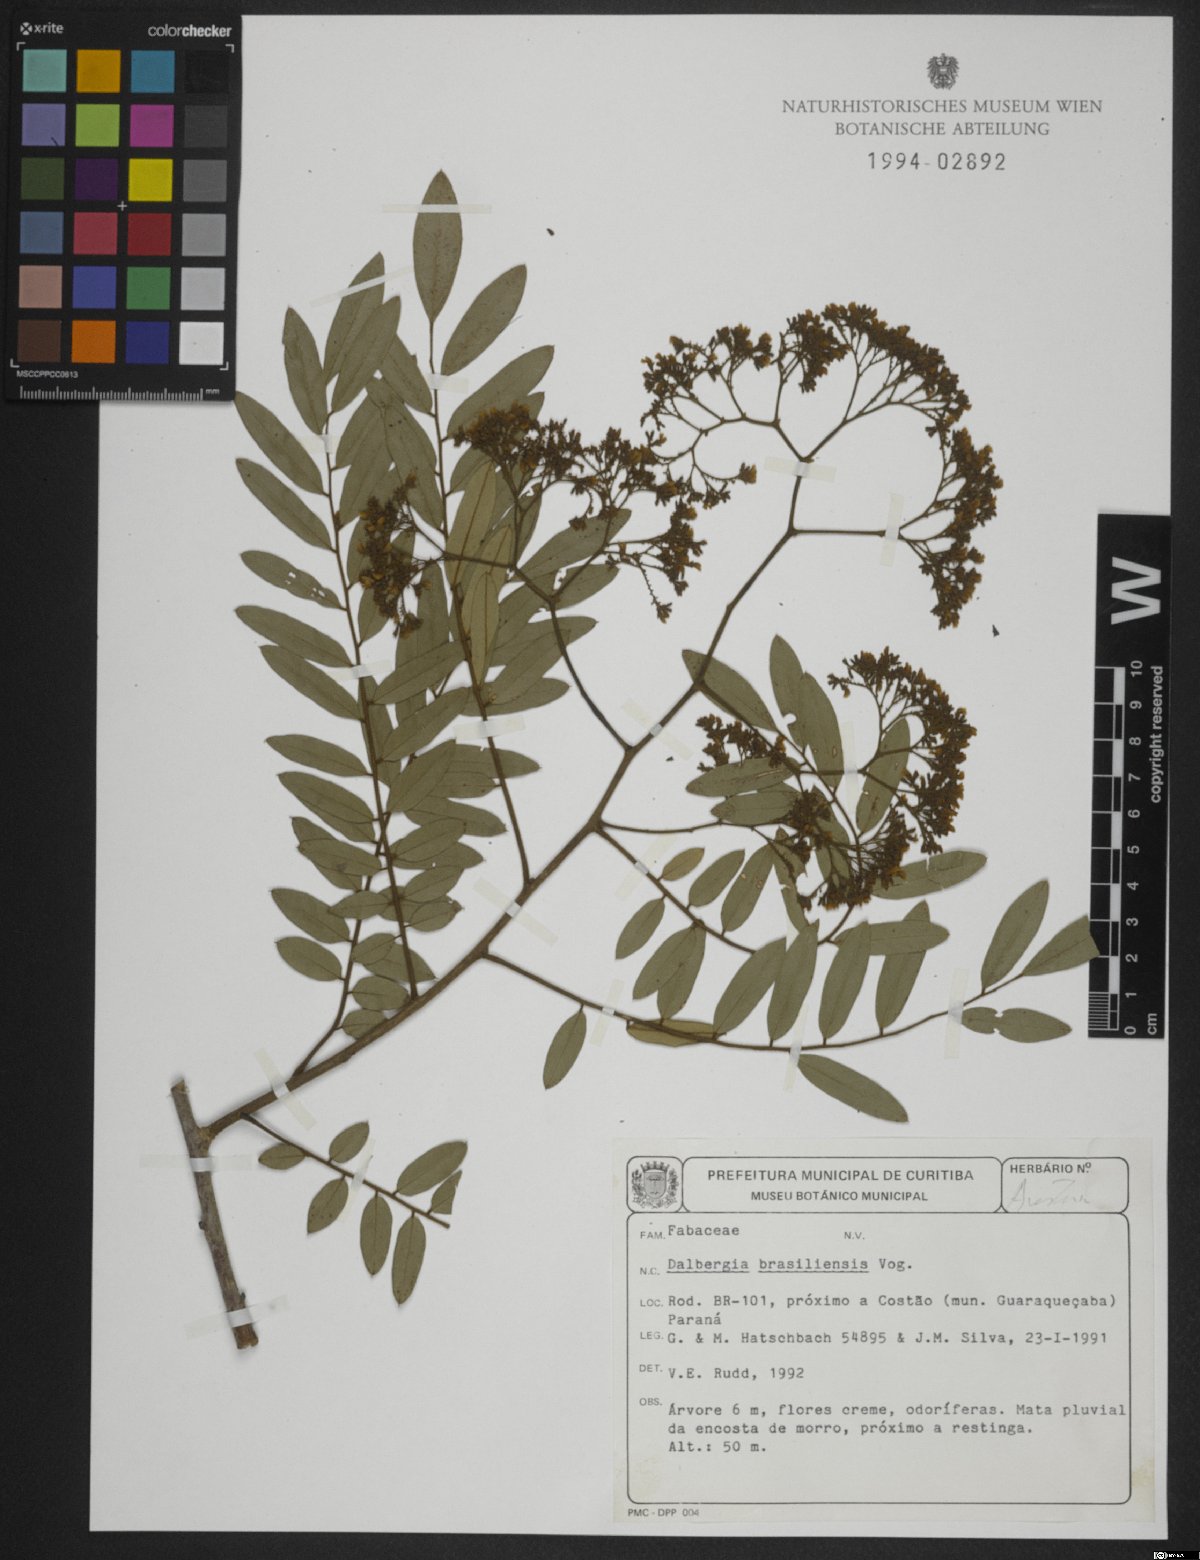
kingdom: Plantae
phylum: Tracheophyta
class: Magnoliopsida
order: Fabales
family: Fabaceae
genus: Dalbergia
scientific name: Dalbergia brasiliensis
